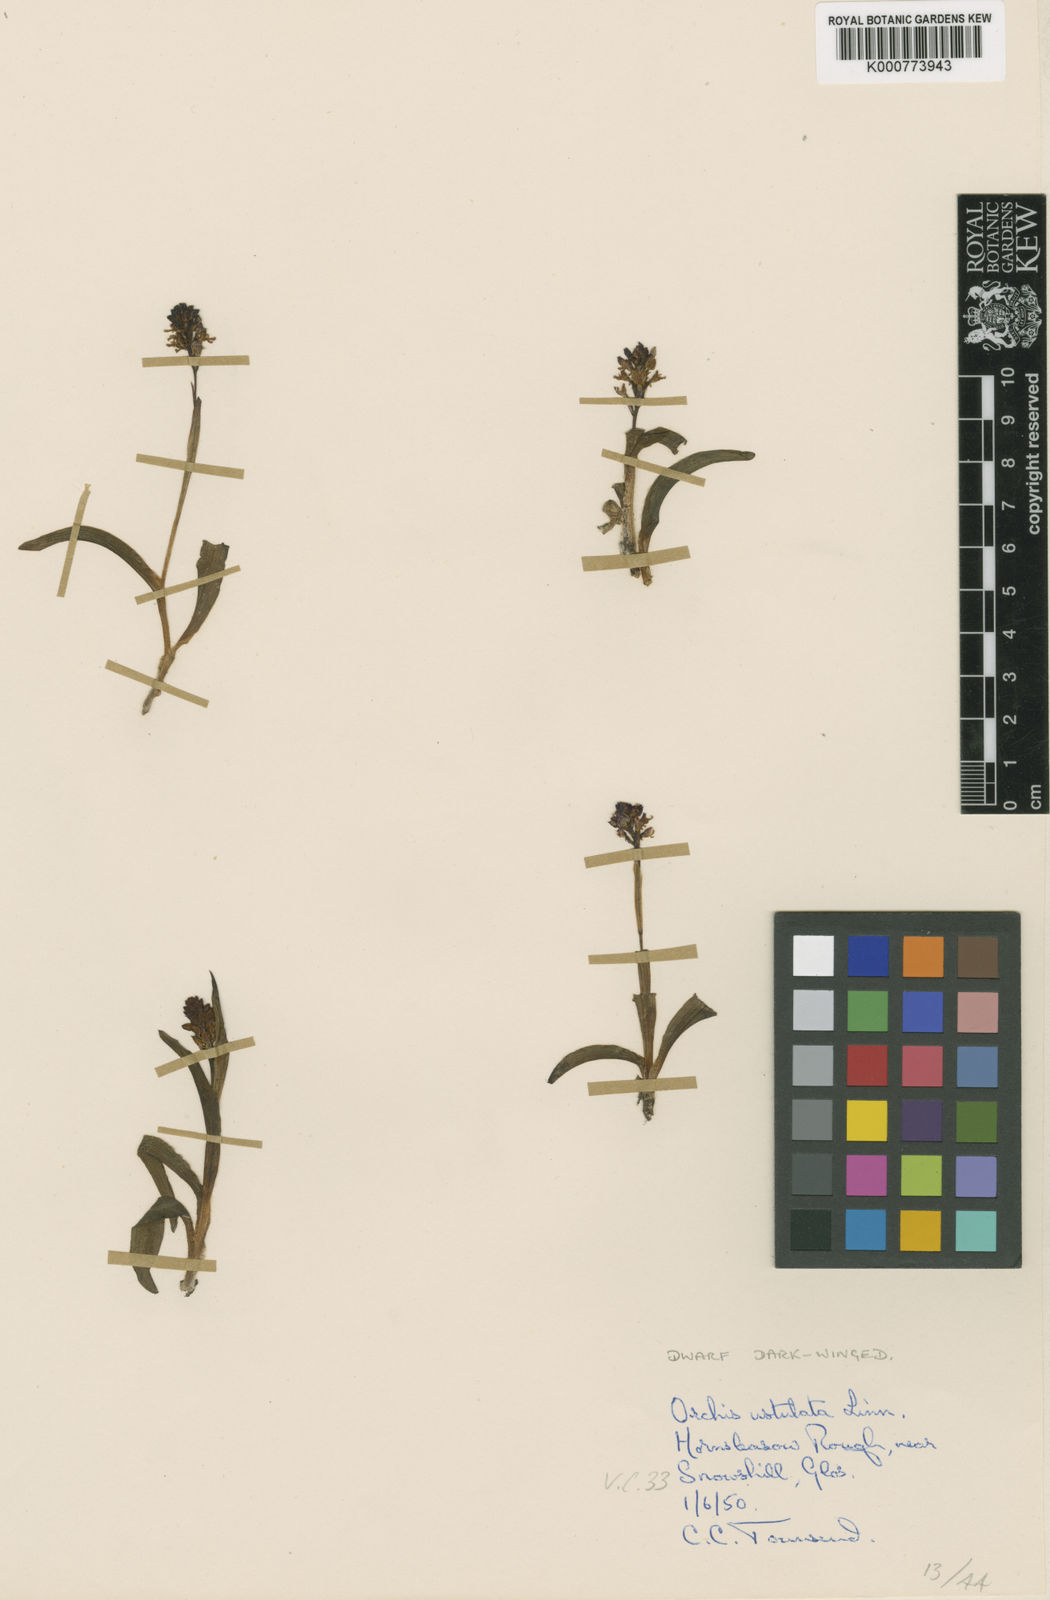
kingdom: Plantae
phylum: Tracheophyta
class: Liliopsida
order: Asparagales
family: Orchidaceae
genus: Neotinea
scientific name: Neotinea ustulata
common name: Burnt orchid
